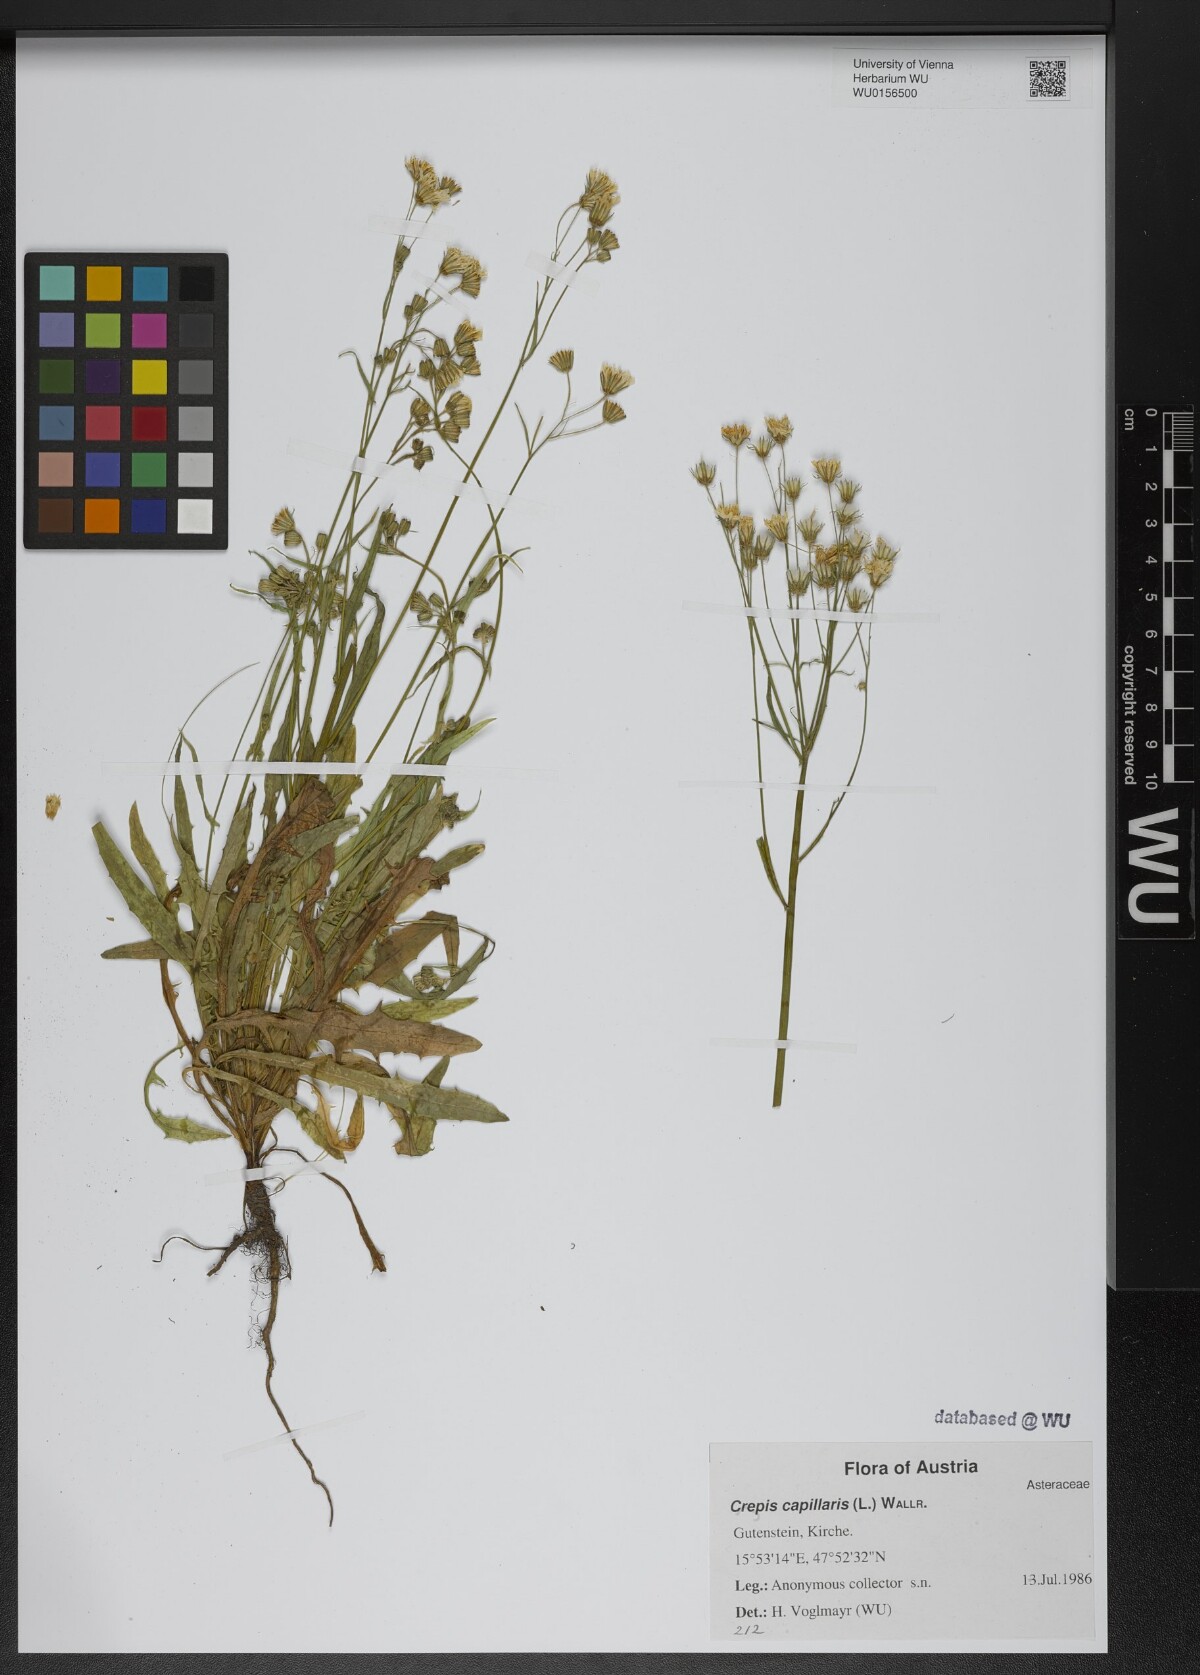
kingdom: Plantae
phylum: Tracheophyta
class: Magnoliopsida
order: Asterales
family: Asteraceae
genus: Crepis
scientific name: Crepis capillaris
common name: Smooth hawksbeard
